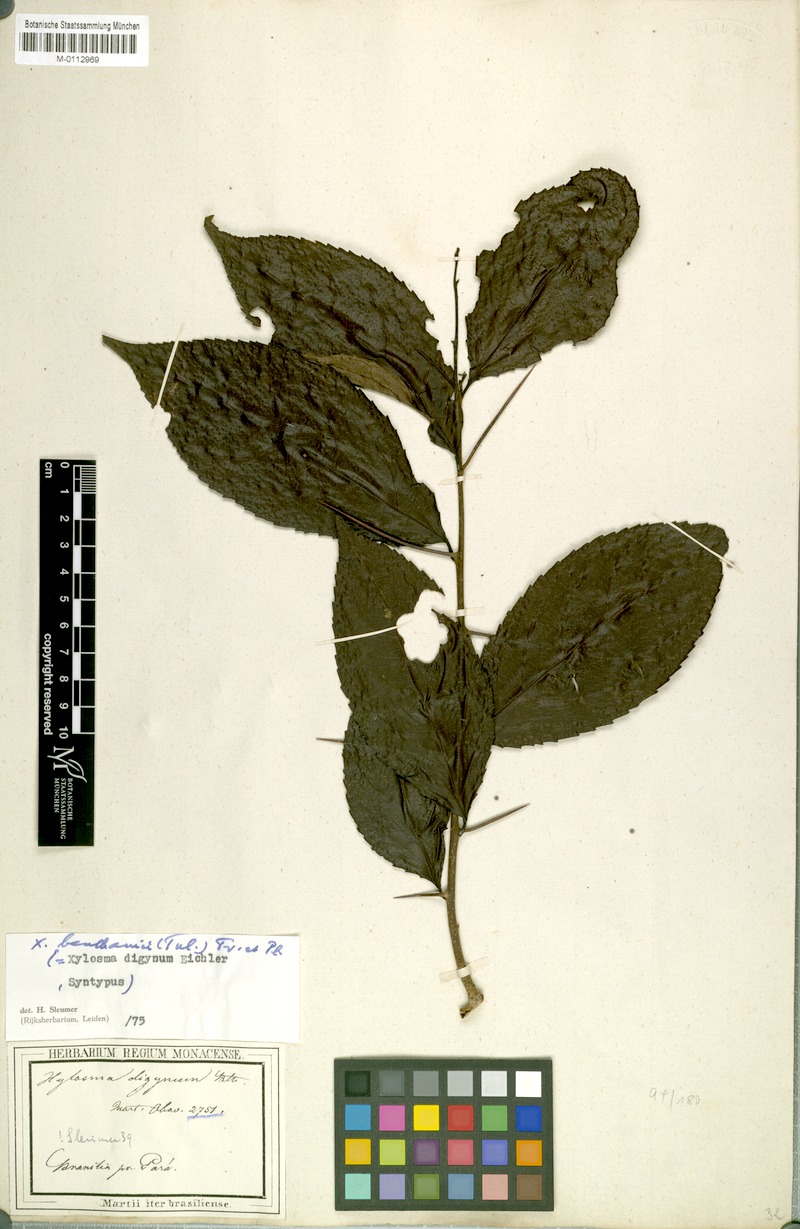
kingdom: Plantae
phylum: Tracheophyta
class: Magnoliopsida
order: Malpighiales
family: Salicaceae
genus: Xylosma
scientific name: Xylosma benthamii
